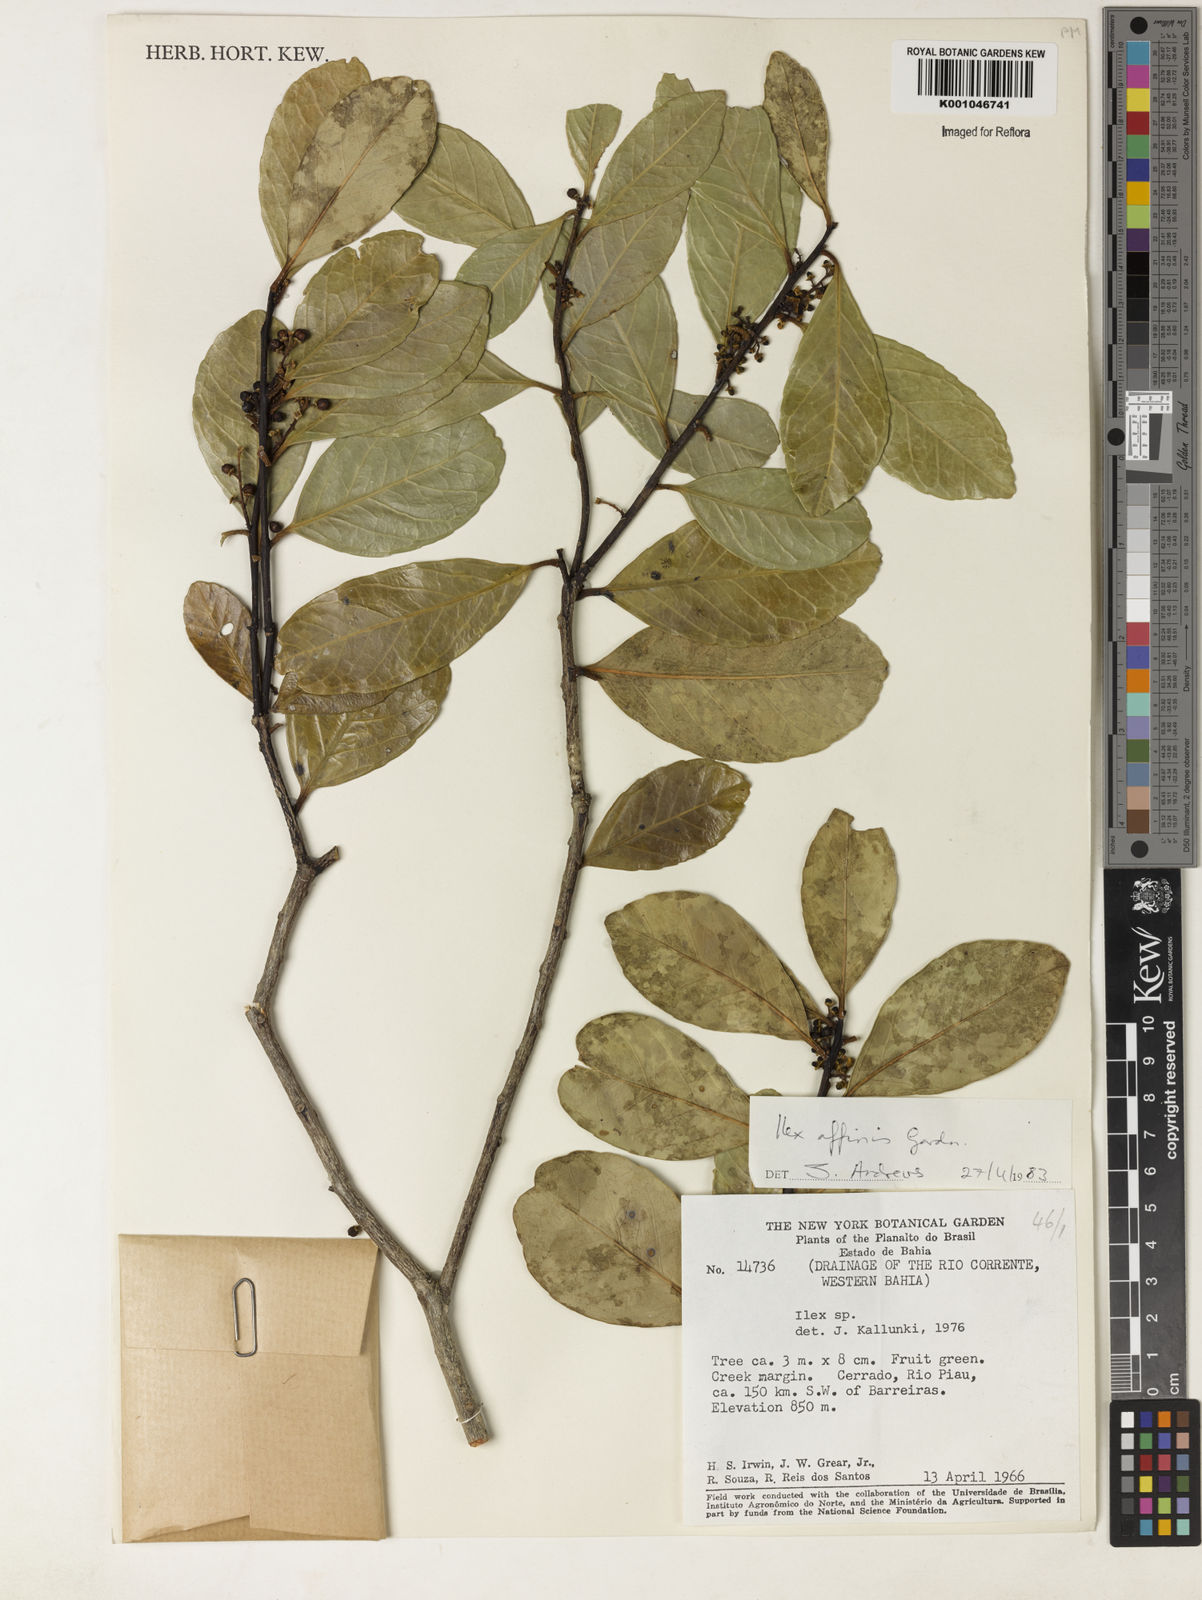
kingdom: Plantae
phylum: Tracheophyta
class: Magnoliopsida
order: Aquifoliales
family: Aquifoliaceae
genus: Ilex
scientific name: Ilex affinis
